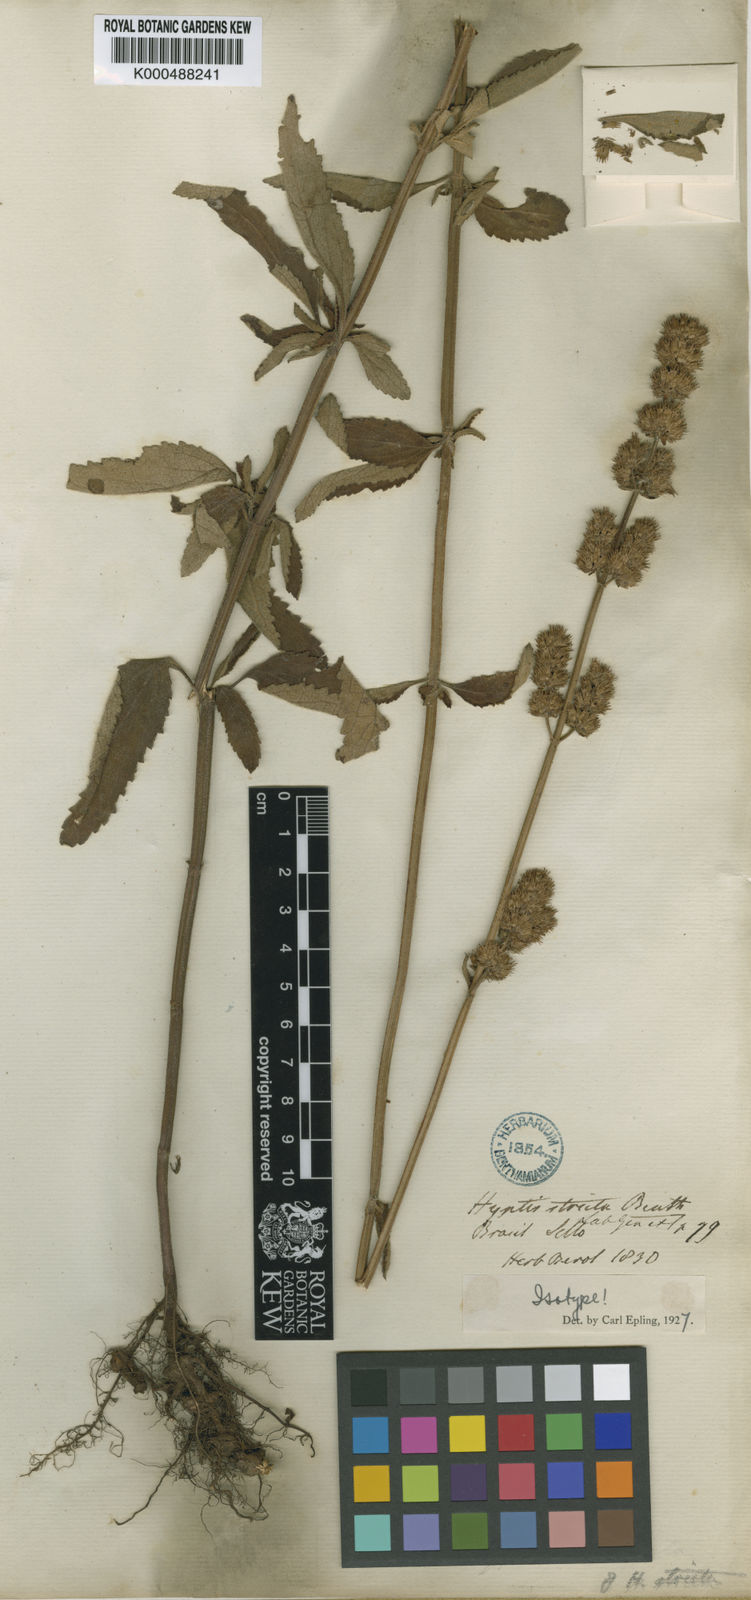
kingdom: Plantae
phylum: Tracheophyta
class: Magnoliopsida
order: Lamiales
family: Lamiaceae
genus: Cantinoa
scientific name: Cantinoa stricta
